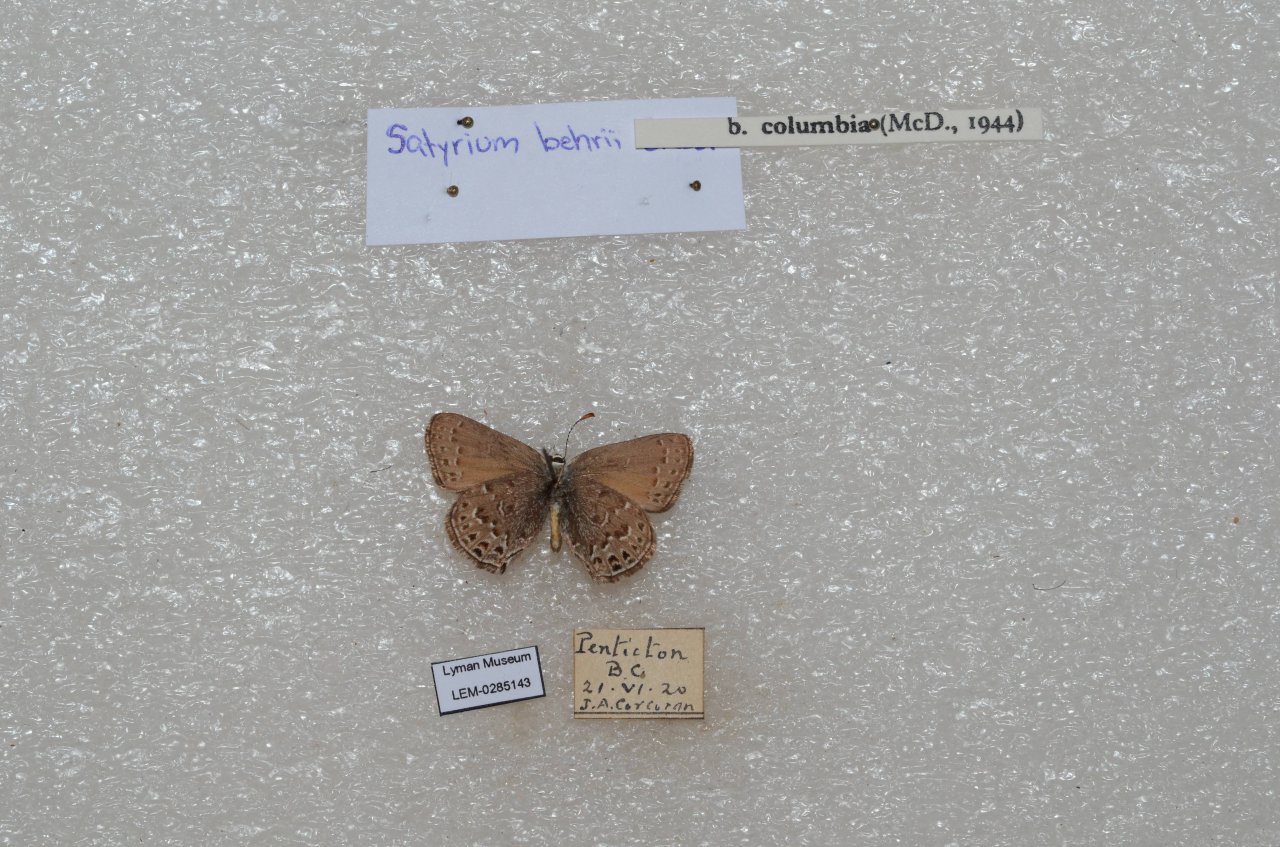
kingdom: Animalia
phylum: Arthropoda
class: Insecta
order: Lepidoptera
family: Lycaenidae
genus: Satyrium
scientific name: Satyrium behrii
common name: Behr's Hairstreak
